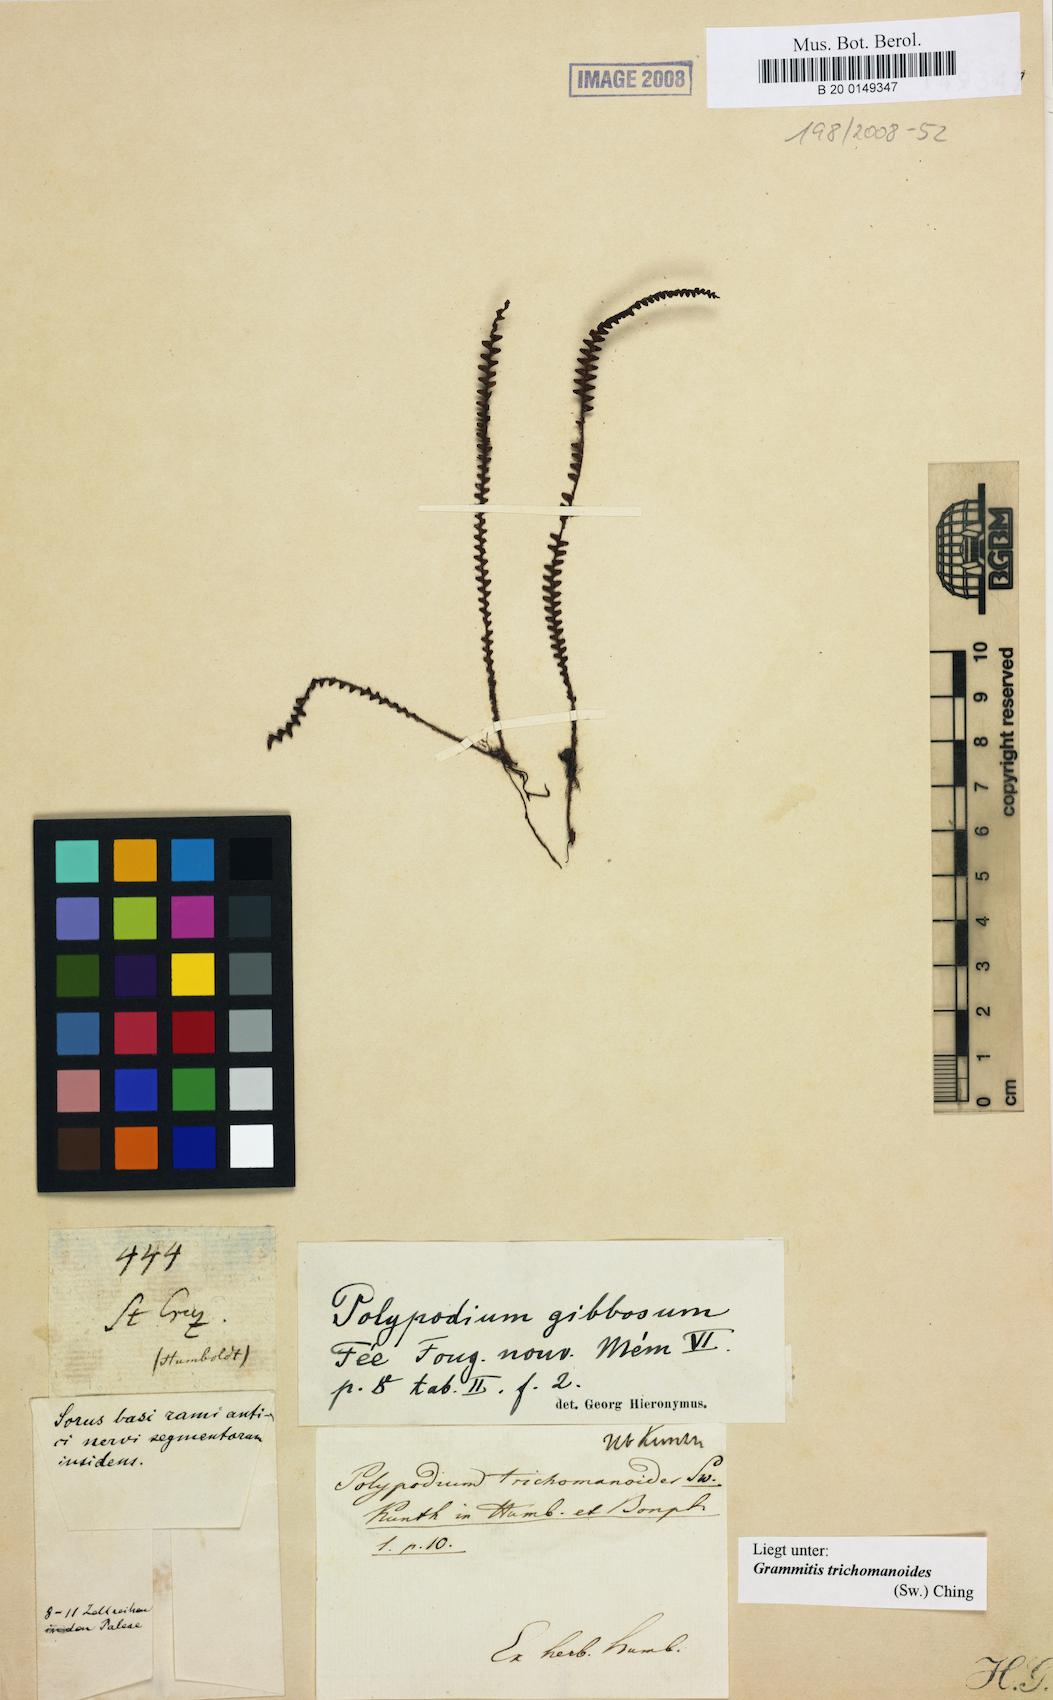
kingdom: Plantae
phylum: Tracheophyta
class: Polypodiopsida
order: Polypodiales
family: Polypodiaceae
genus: Moranopteris
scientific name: Moranopteris taenifolia
